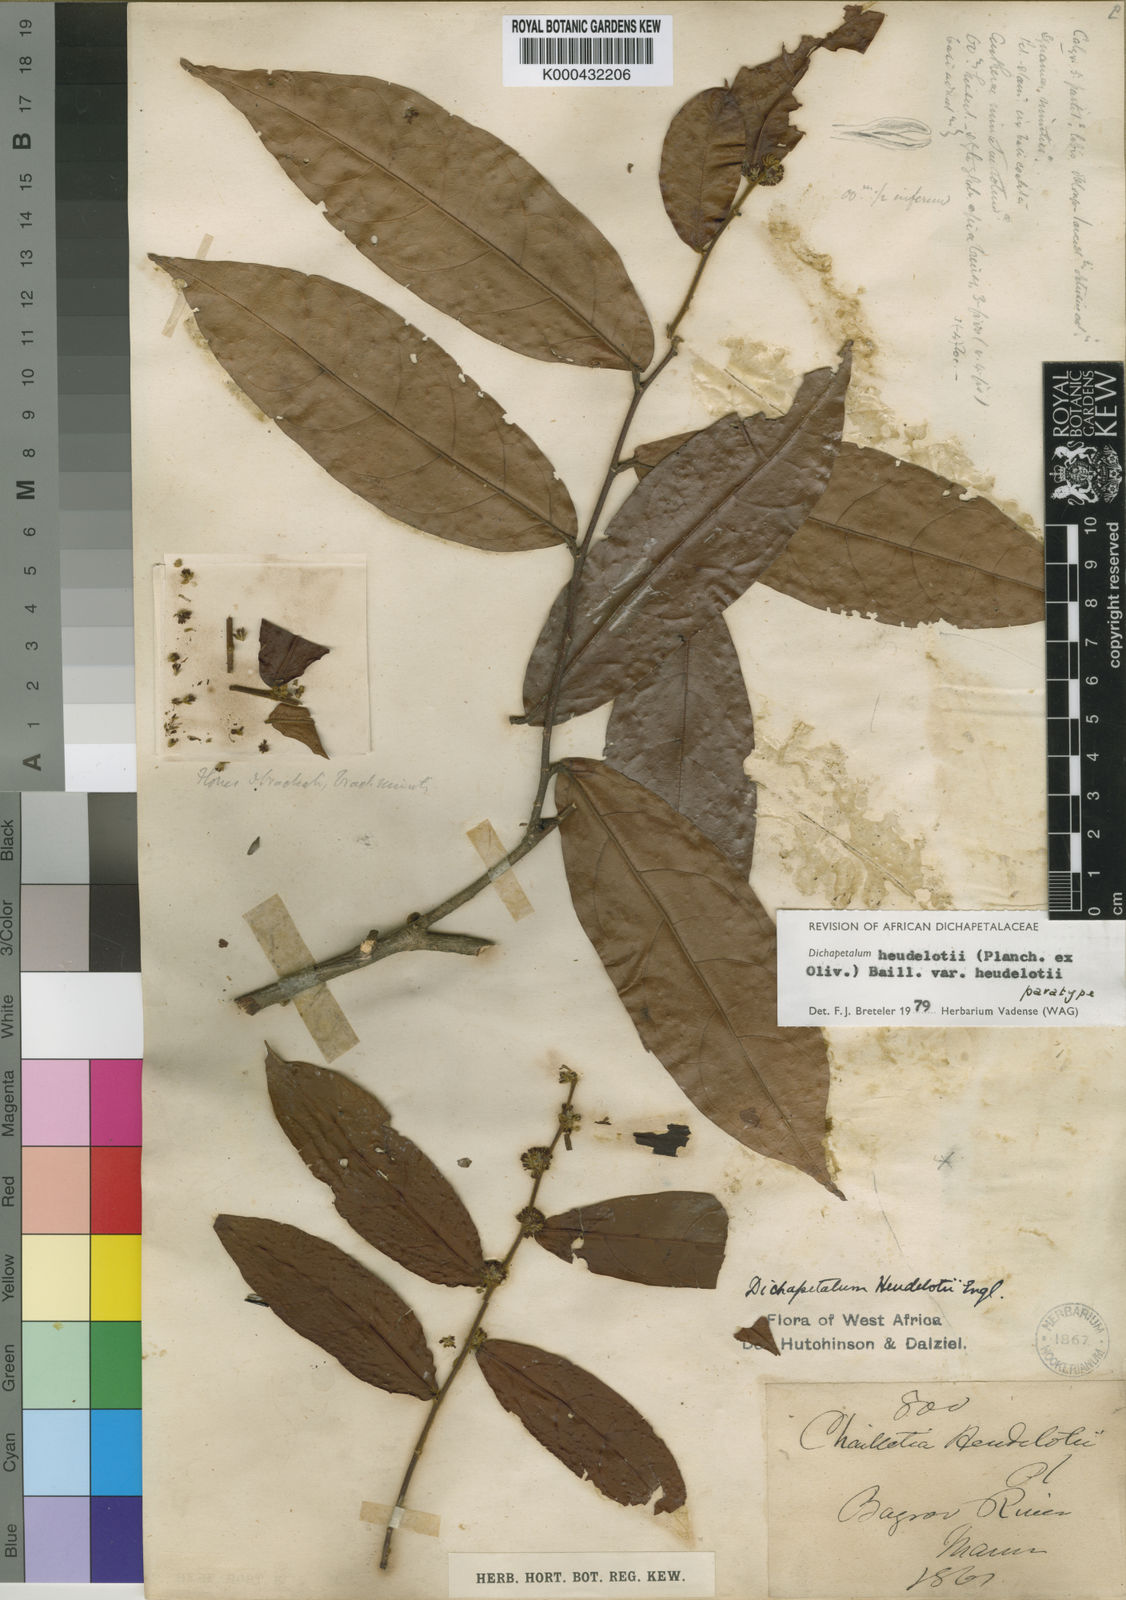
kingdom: Plantae
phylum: Tracheophyta
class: Magnoliopsida
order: Malpighiales
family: Dichapetalaceae
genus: Dichapetalum
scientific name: Dichapetalum heudelotii
